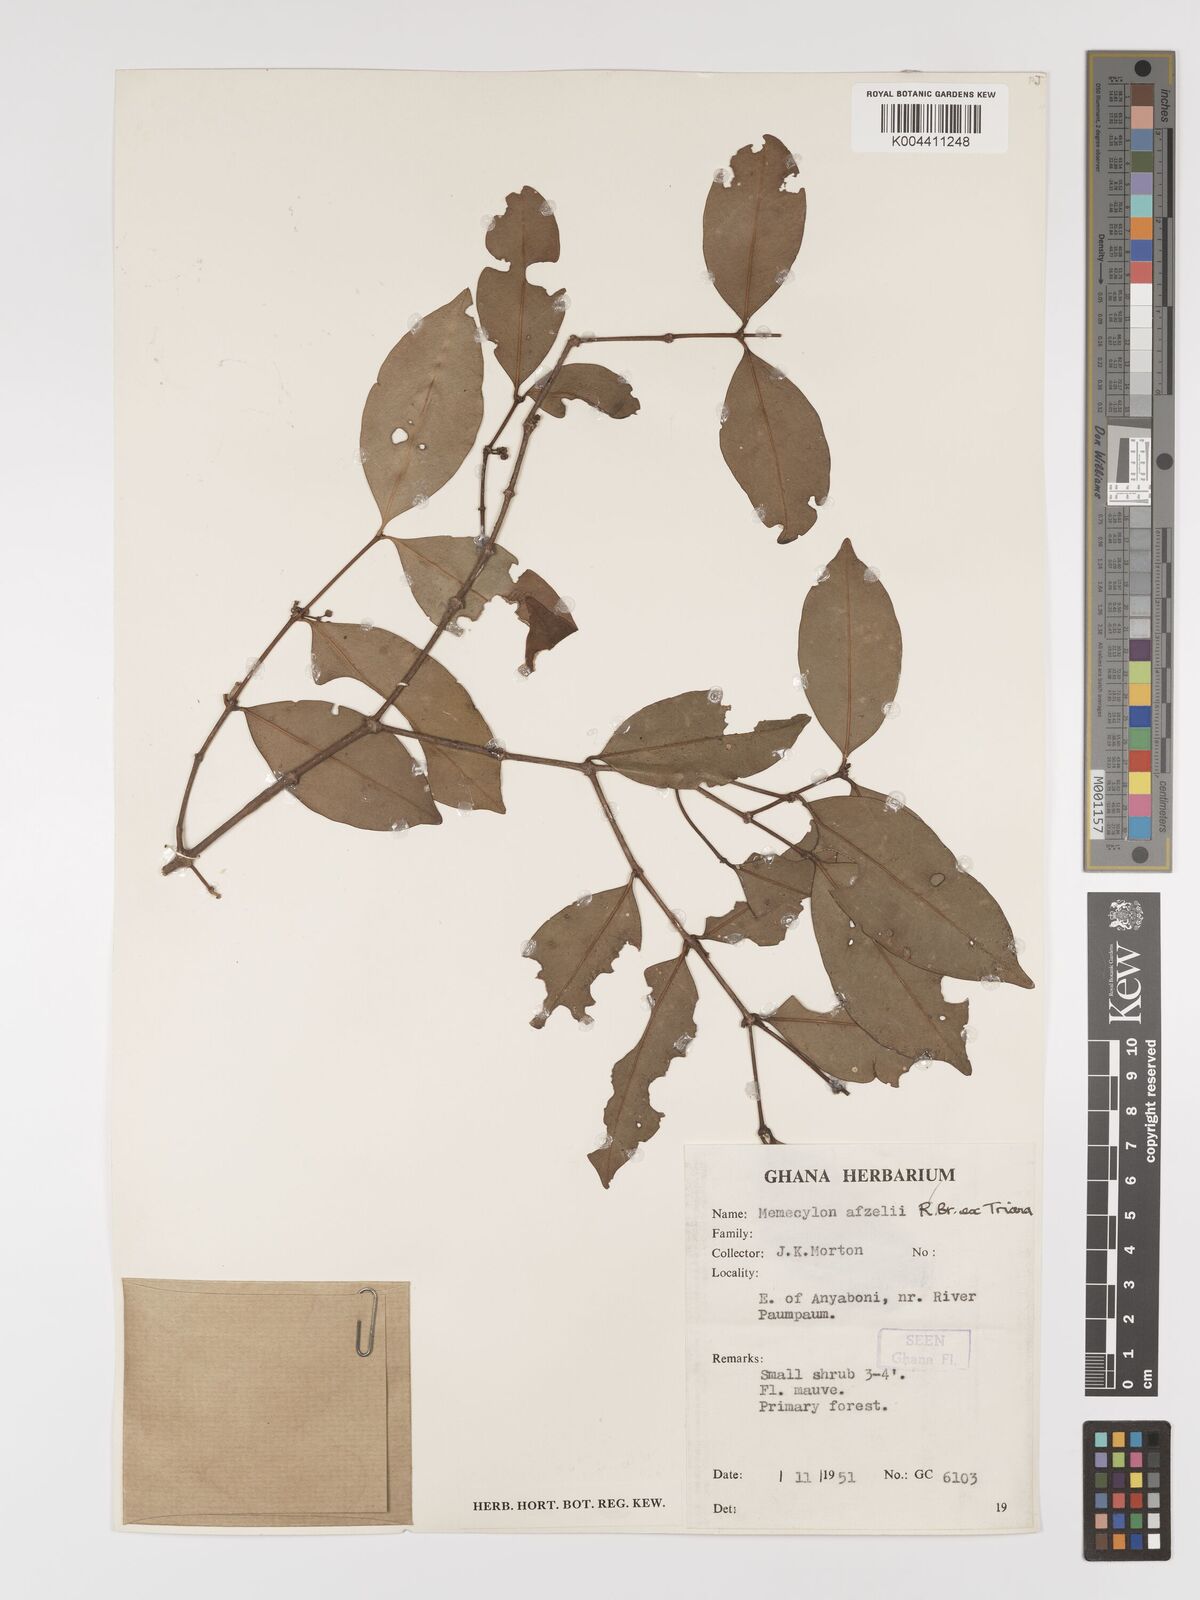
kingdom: Plantae
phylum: Tracheophyta
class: Magnoliopsida
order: Myrtales
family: Melastomataceae
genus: Memecylon
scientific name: Memecylon afzelii
